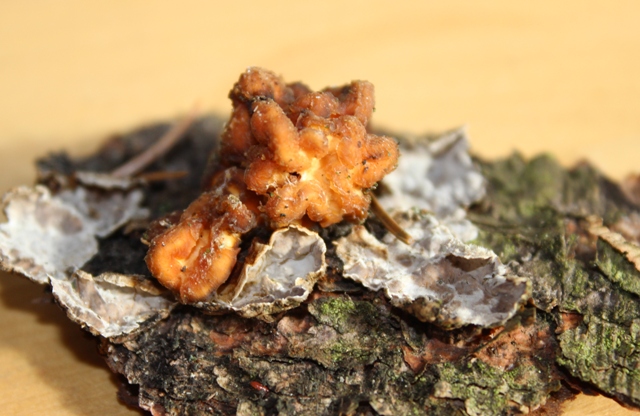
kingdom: Fungi
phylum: Basidiomycota
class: Tremellomycetes
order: Tremellales
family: Naemateliaceae
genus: Naematelia
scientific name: Naematelia encephala
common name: fyrre-bævresvamp
